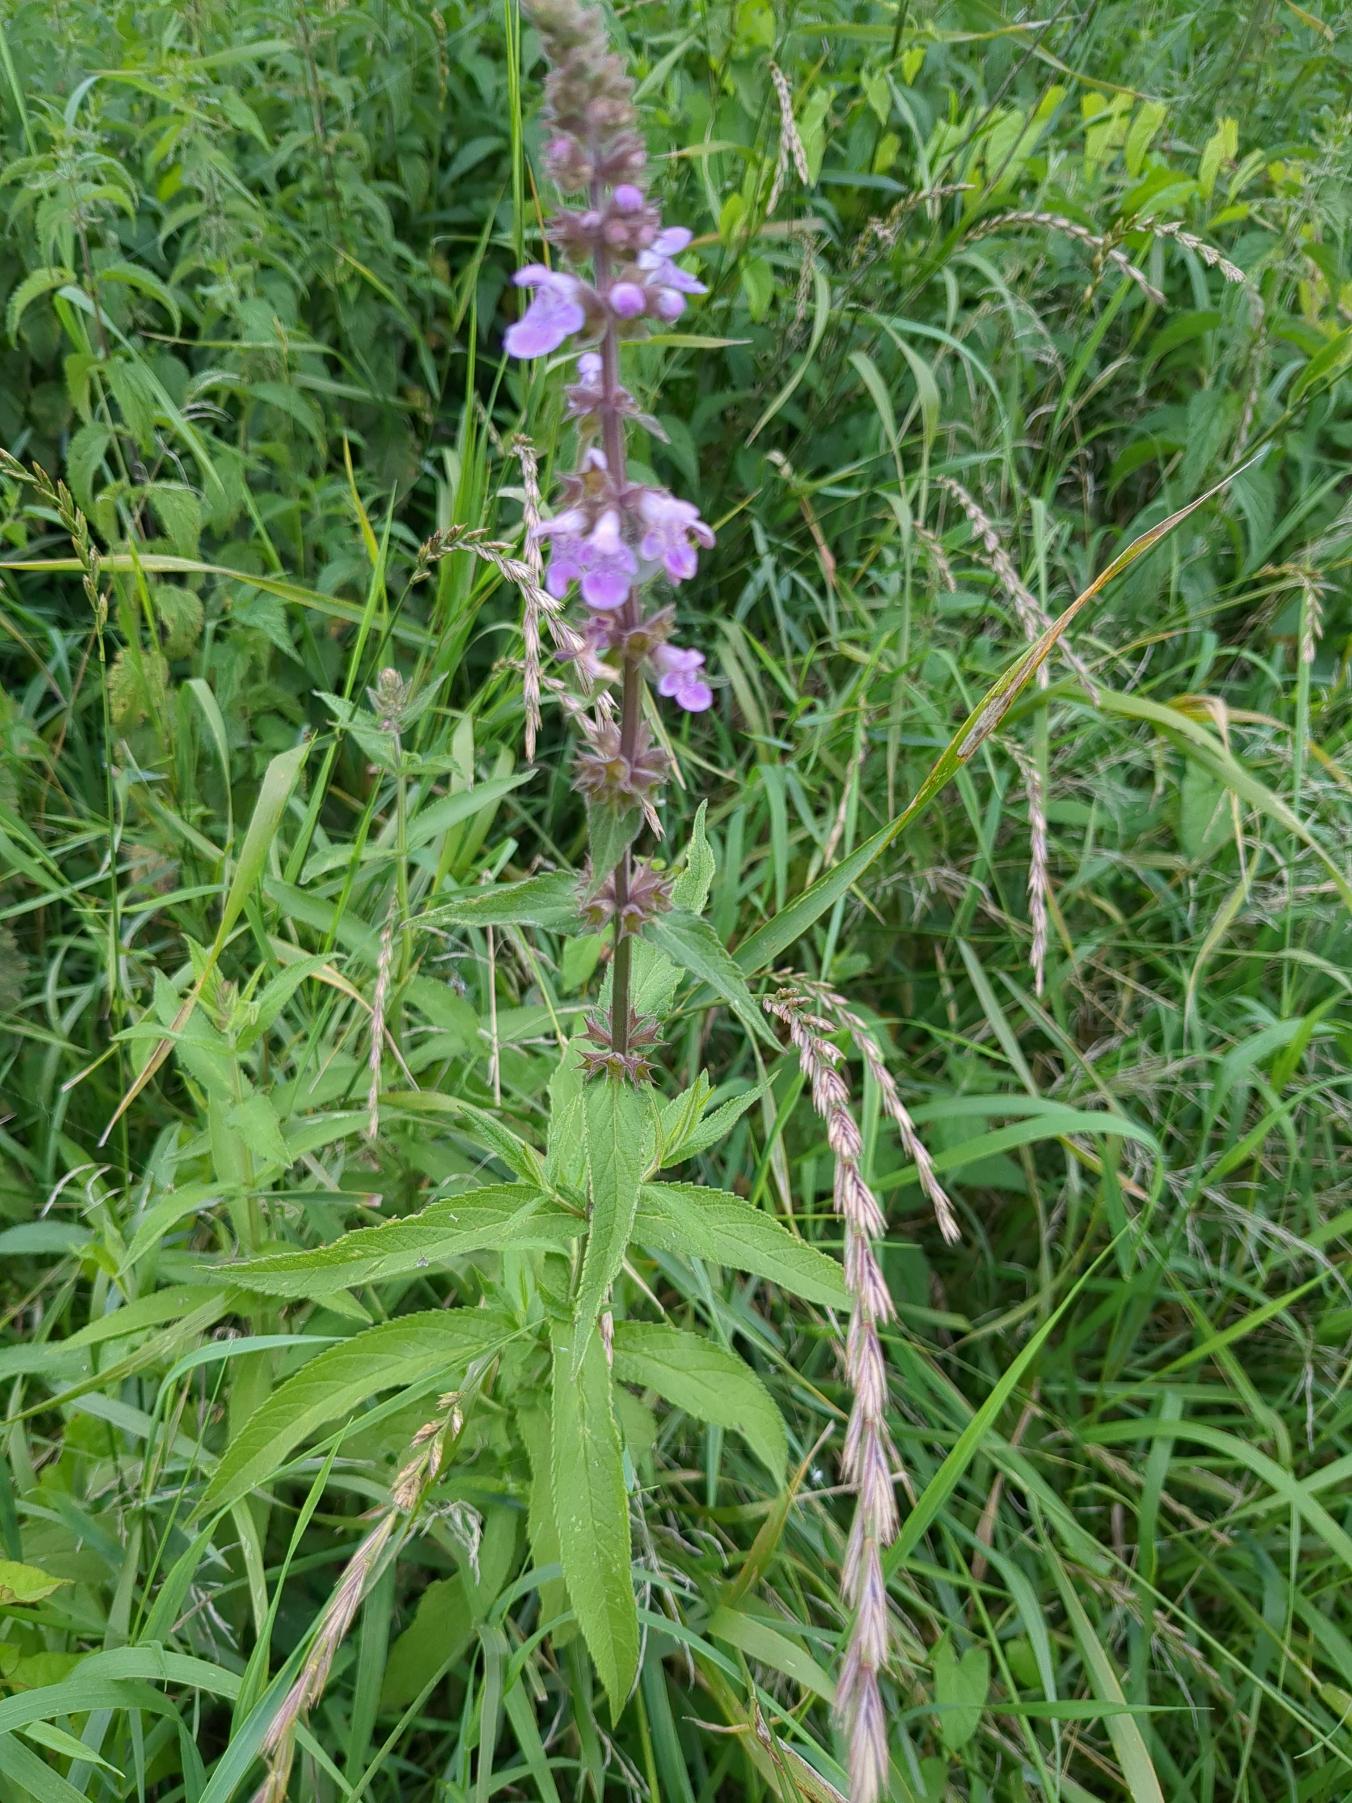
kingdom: Plantae
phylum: Tracheophyta
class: Magnoliopsida
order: Lamiales
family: Lamiaceae
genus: Stachys
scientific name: Stachys palustris
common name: Kær-galtetand
